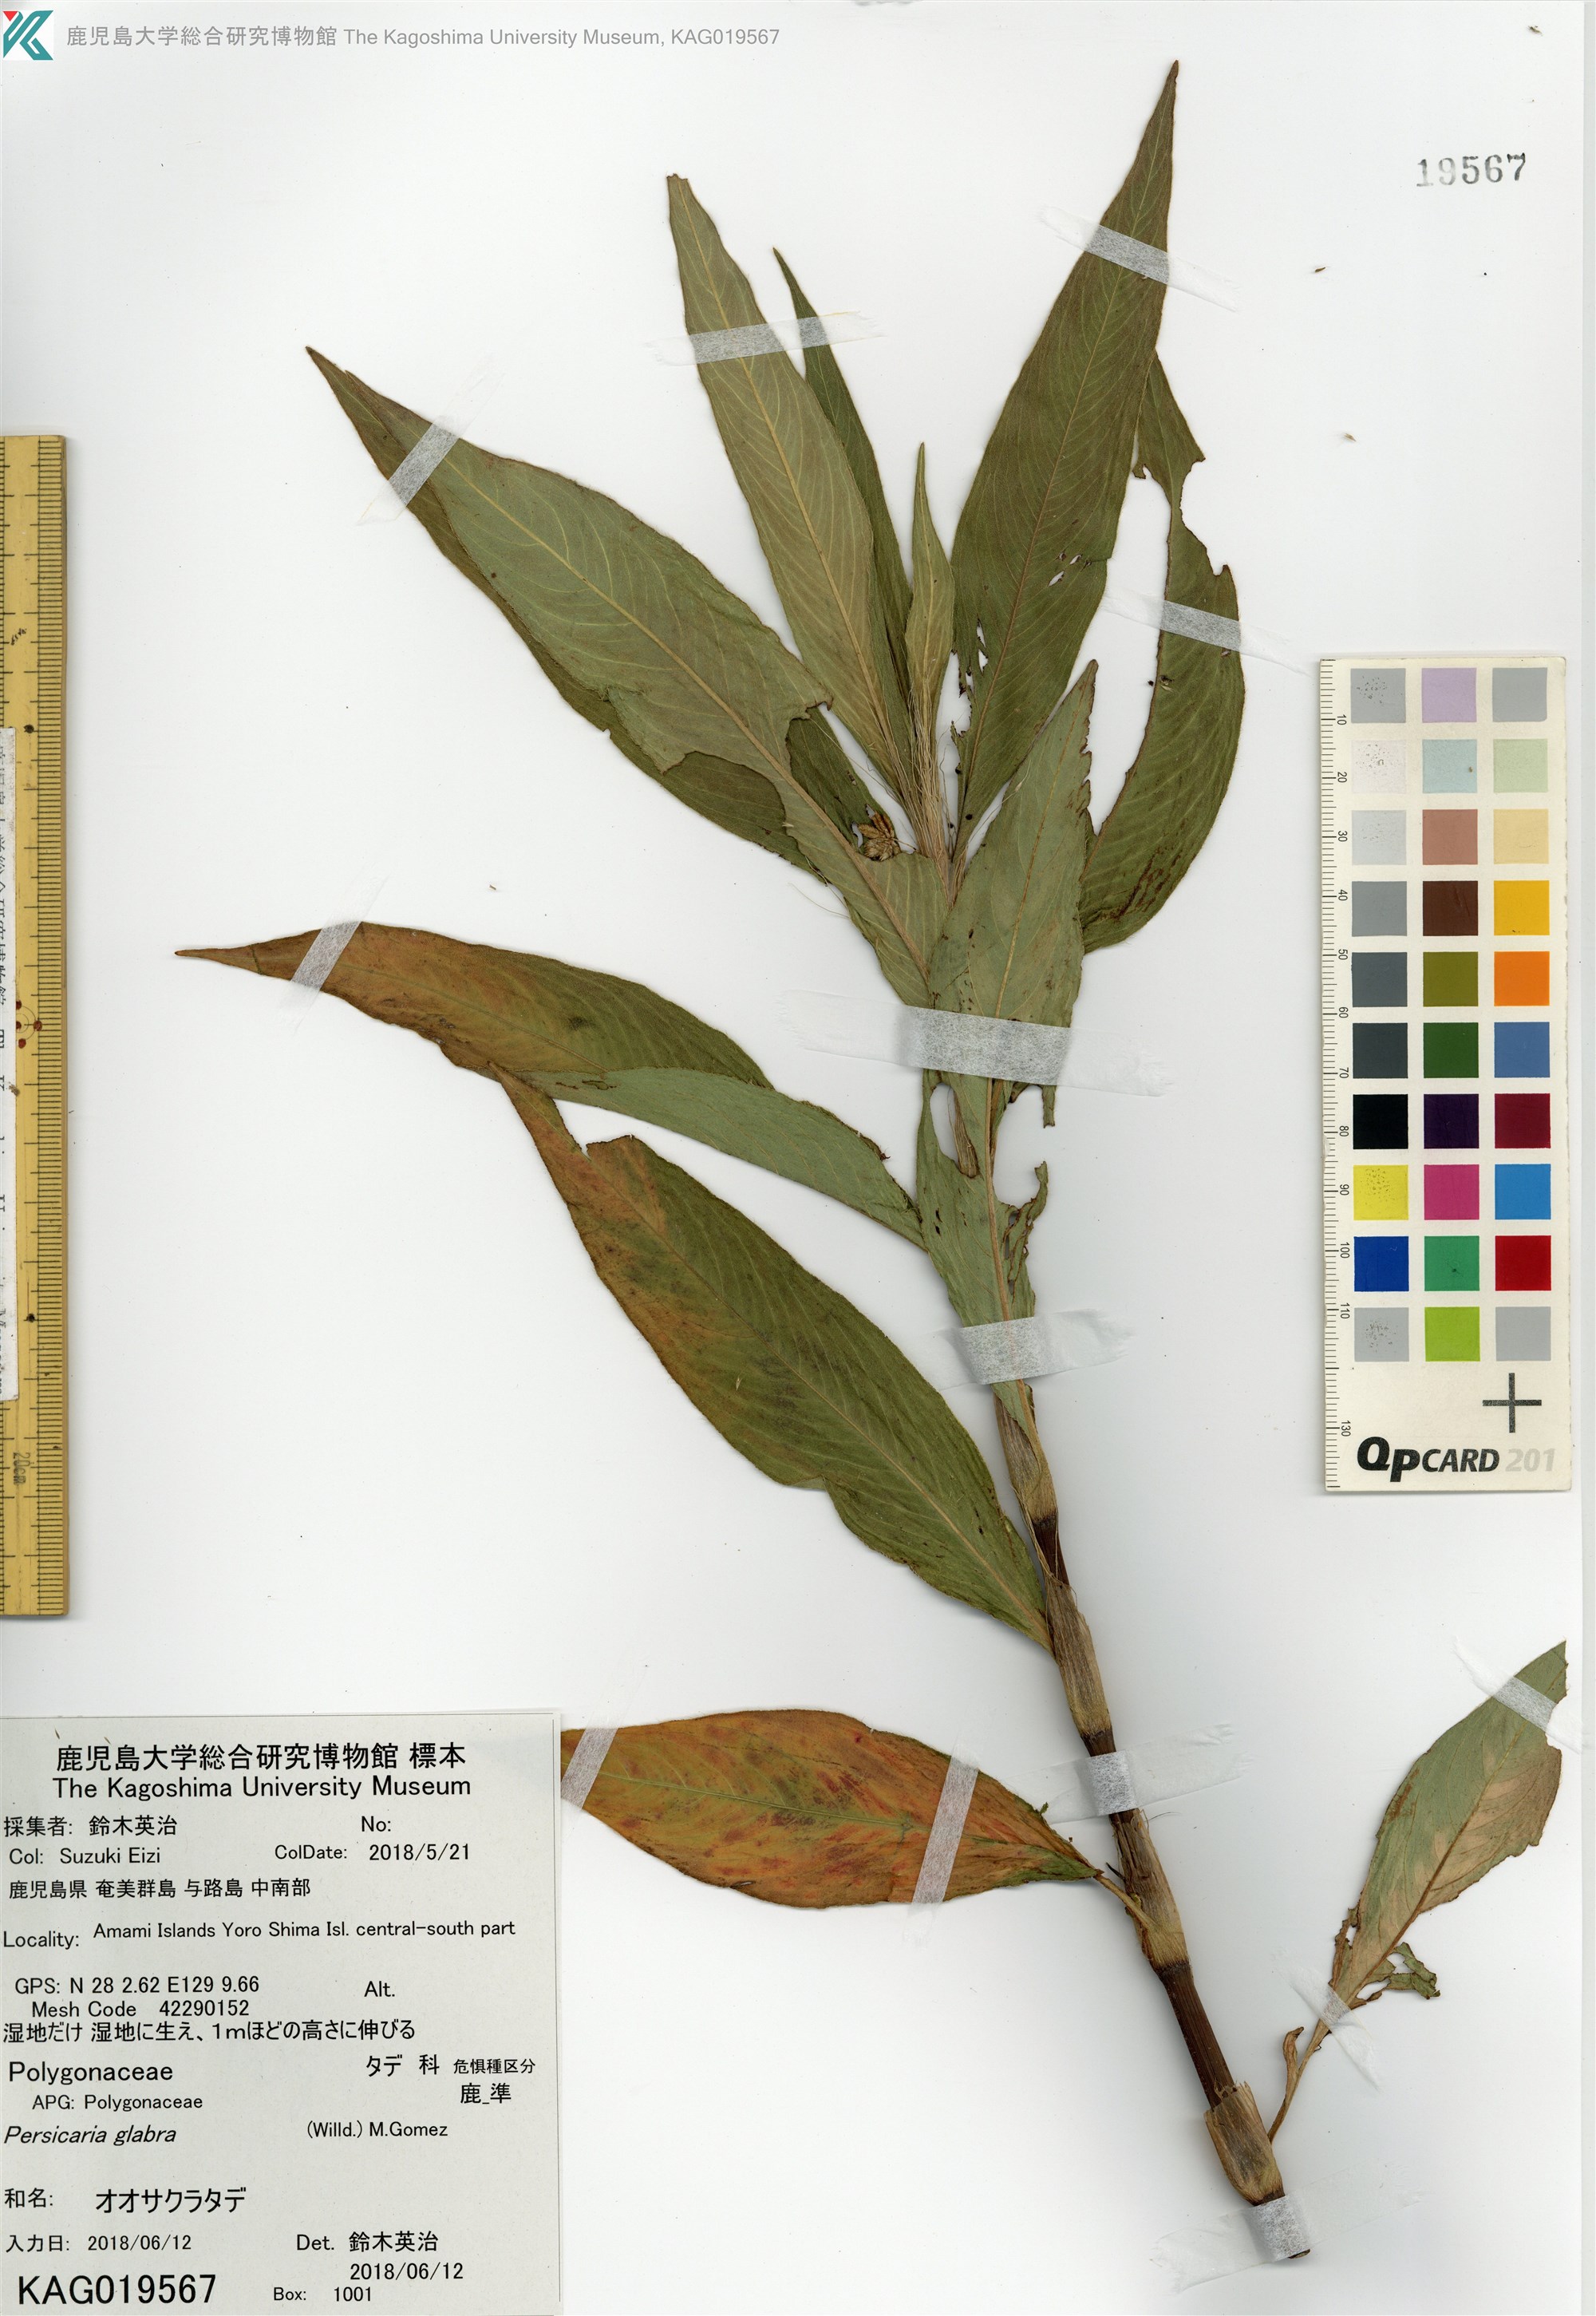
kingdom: Plantae
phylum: Tracheophyta
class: Magnoliopsida
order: Caryophyllales
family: Polygonaceae
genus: Persicaria
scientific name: Persicaria glabra
